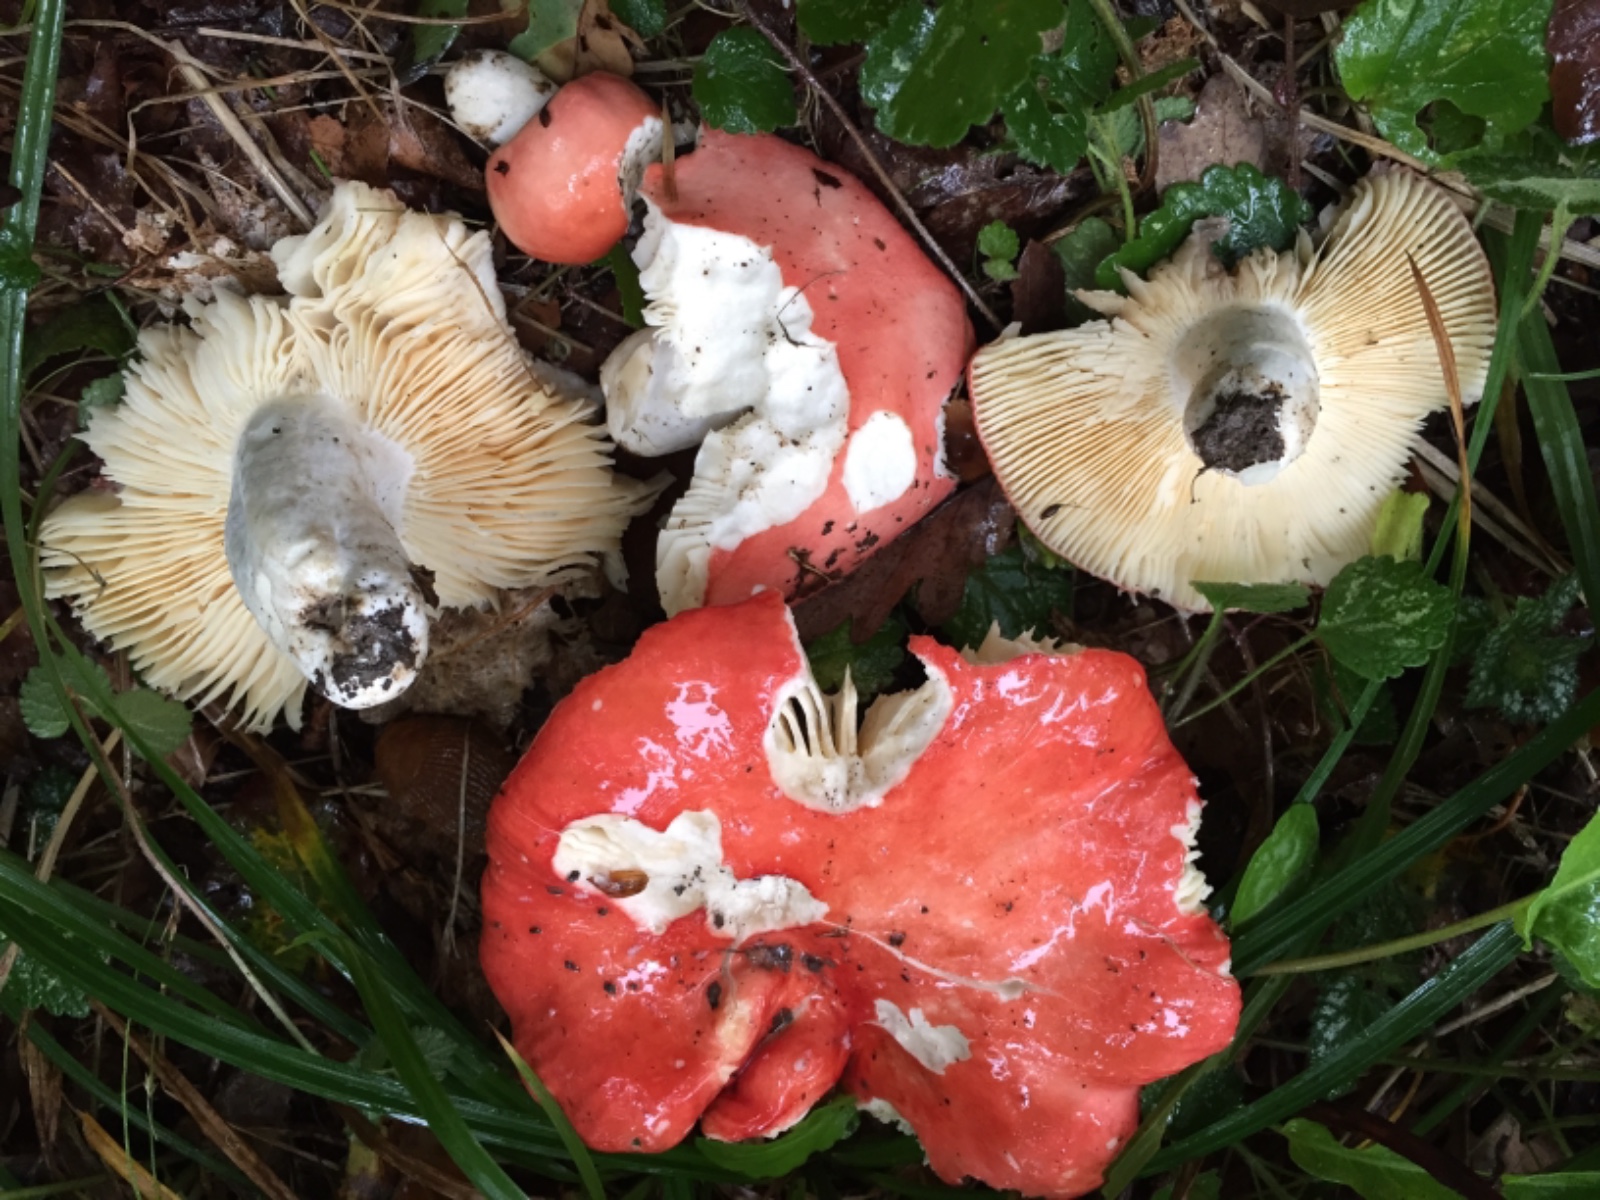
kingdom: Fungi
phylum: Basidiomycota
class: Agaricomycetes
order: Russulales
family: Russulaceae
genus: Russula
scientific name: Russula pseudointegra
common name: cinnoberrød skørhat
